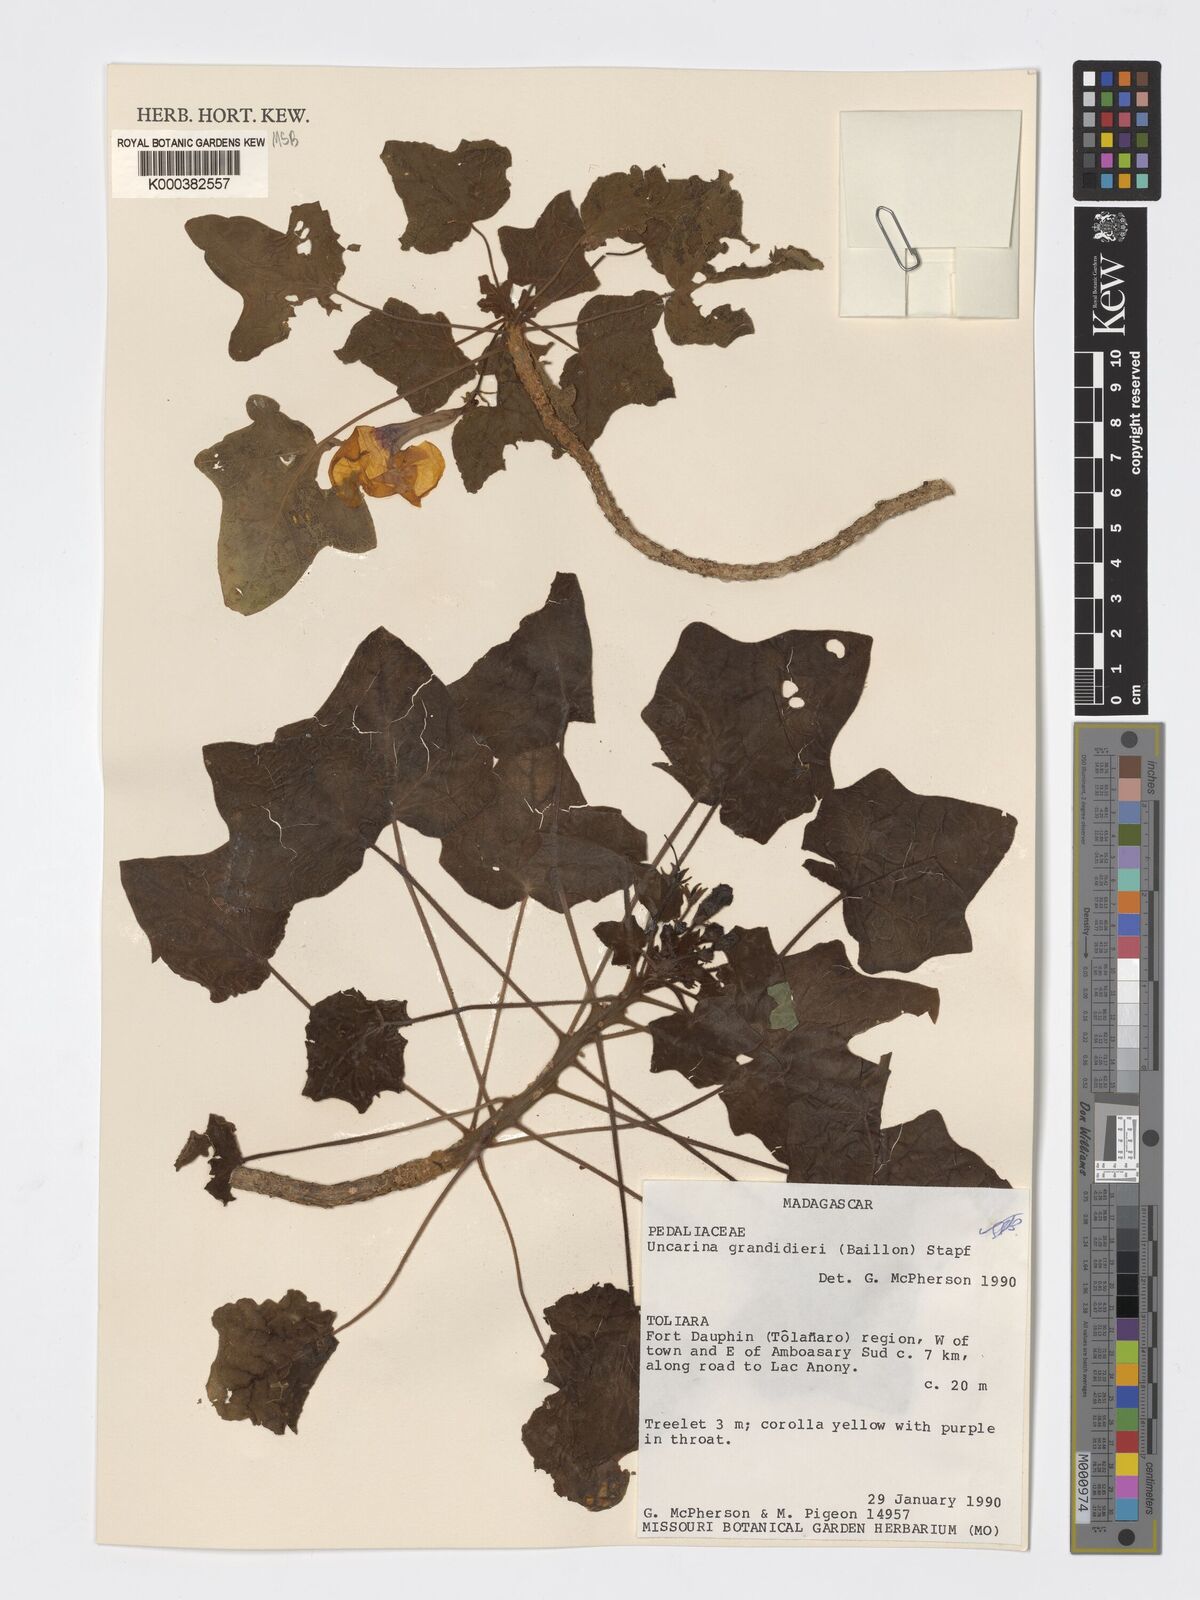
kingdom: Plantae
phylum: Tracheophyta
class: Magnoliopsida
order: Lamiales
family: Pedaliaceae
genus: Uncarina
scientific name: Uncarina
